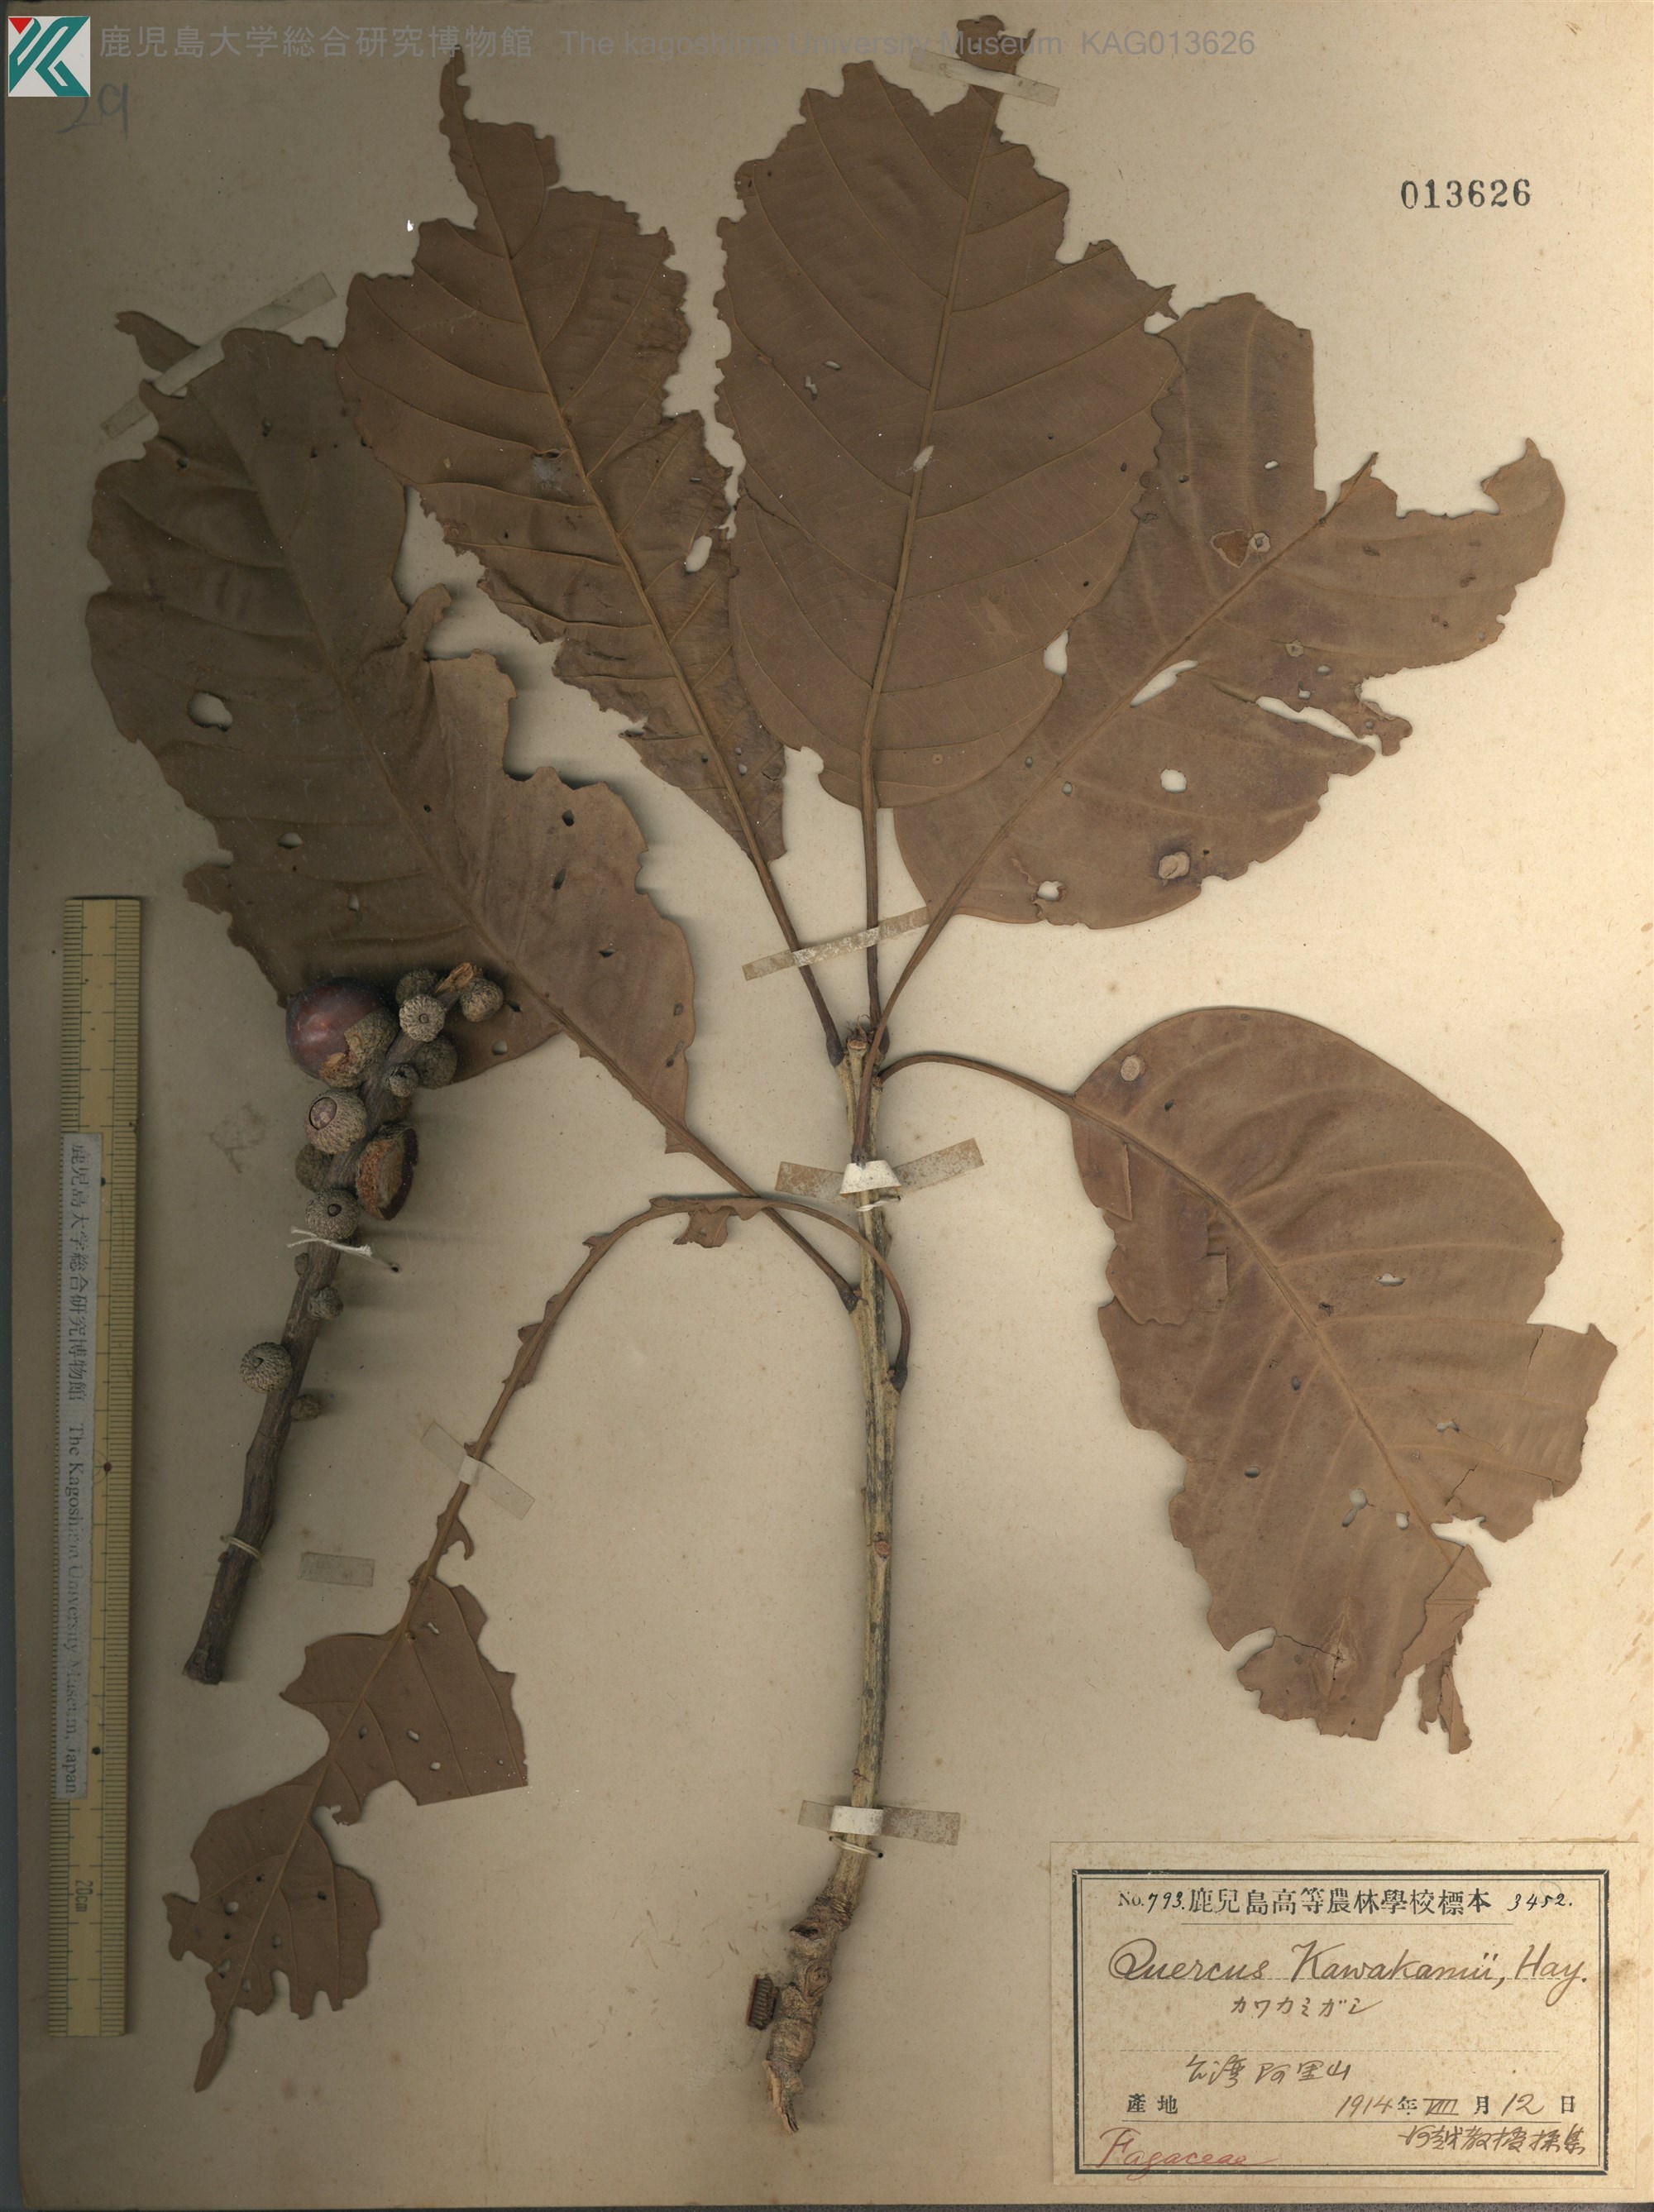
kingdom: Plantae
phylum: Tracheophyta
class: Magnoliopsida
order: Fagales
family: Fagaceae
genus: Lithocarpus
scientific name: Lithocarpus kawakamii
